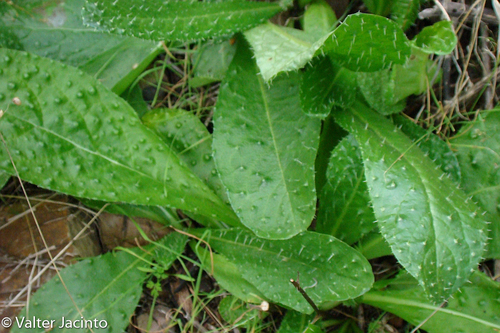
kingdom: Plantae
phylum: Tracheophyta
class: Magnoliopsida
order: Asterales
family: Asteraceae
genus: Helminthotheca
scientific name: Helminthotheca comosa
